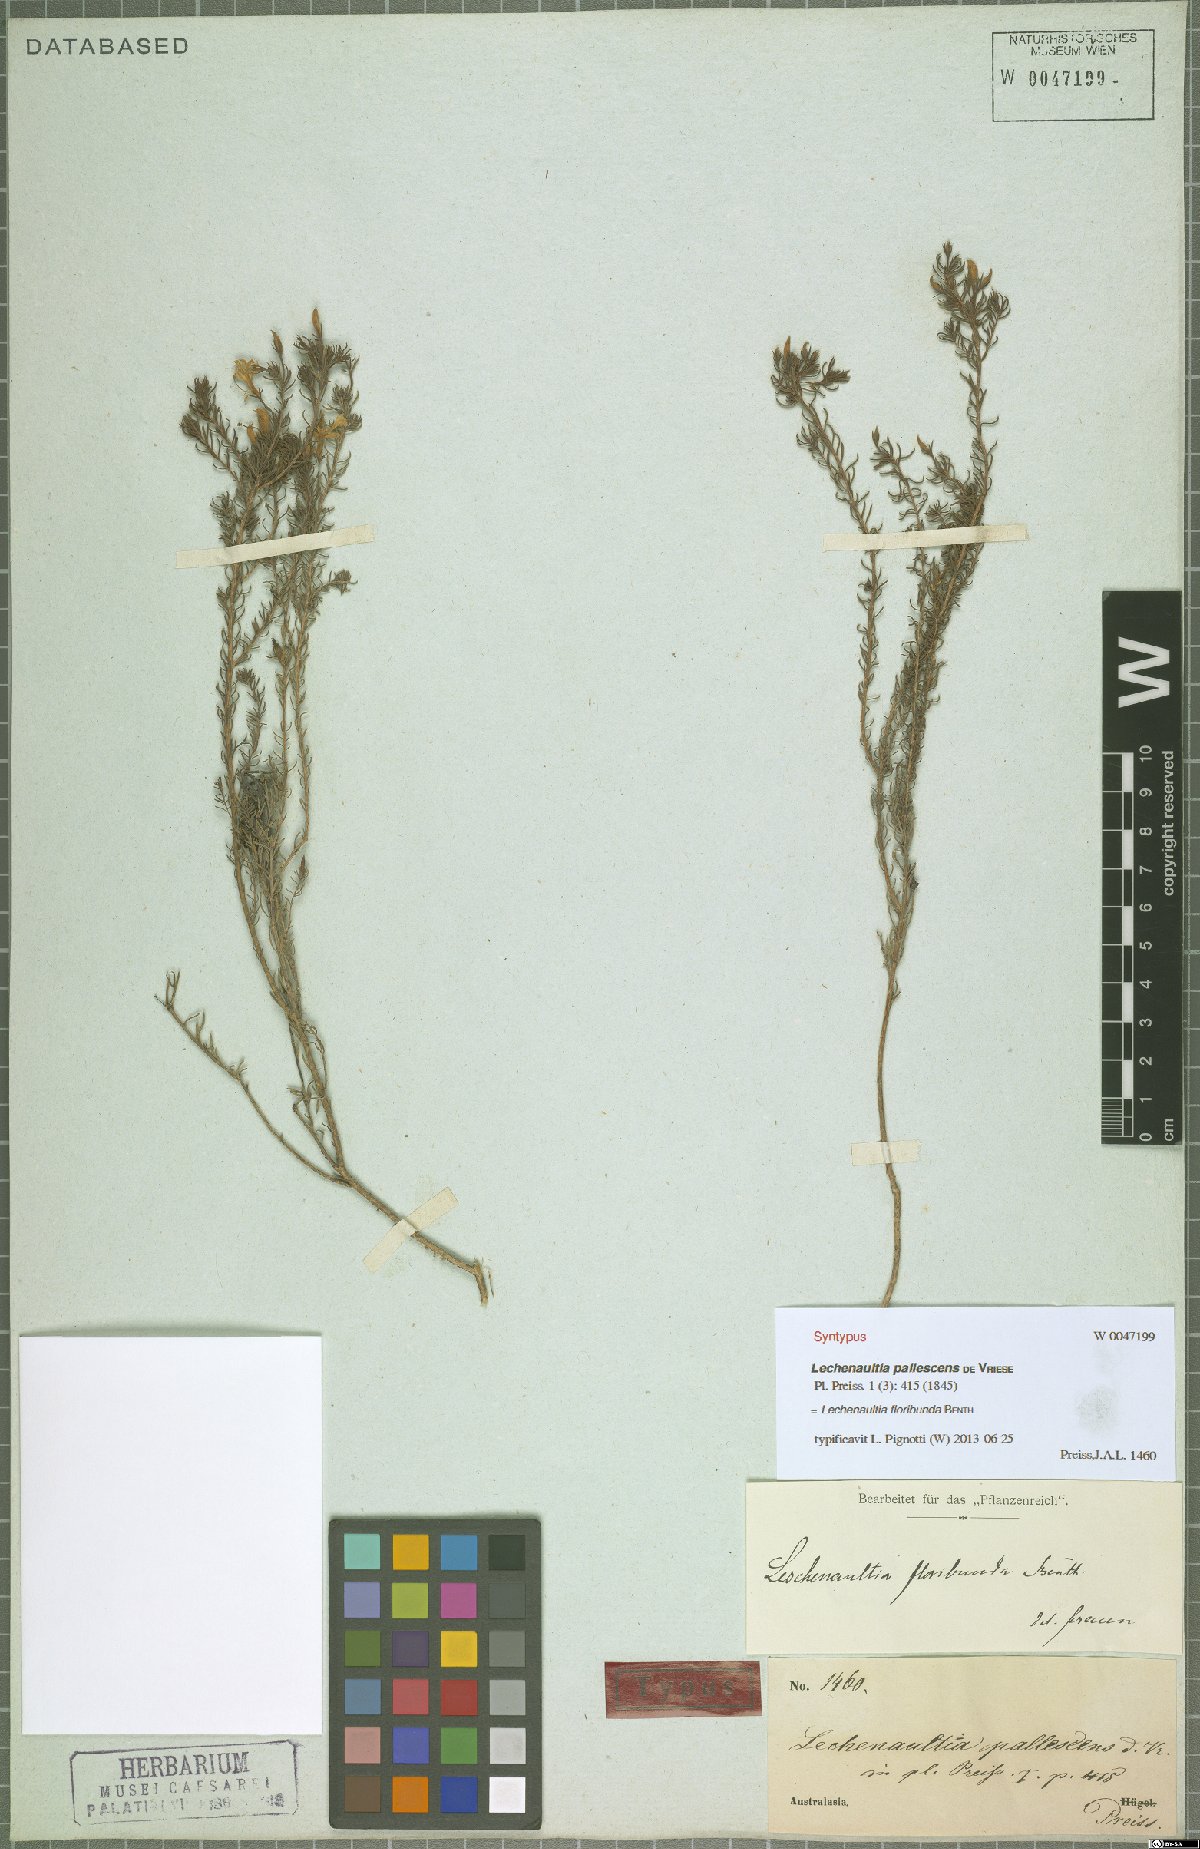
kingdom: Plantae
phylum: Tracheophyta
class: Magnoliopsida
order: Asterales
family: Goodeniaceae
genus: Lechenaultia
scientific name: Lechenaultia floribunda
